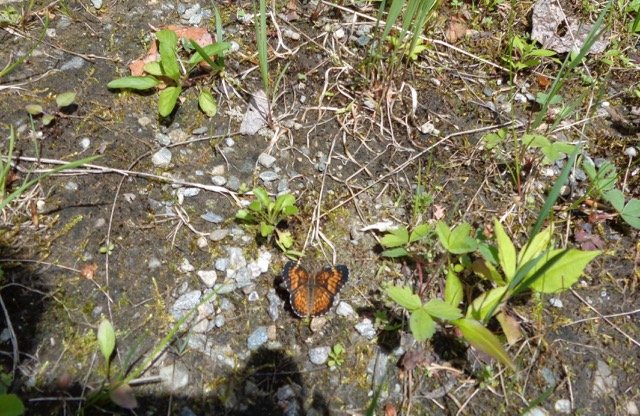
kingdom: Animalia
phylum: Arthropoda
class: Insecta
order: Lepidoptera
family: Nymphalidae
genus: Chlosyne
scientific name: Chlosyne harrisii
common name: Harris's Checkerspot
